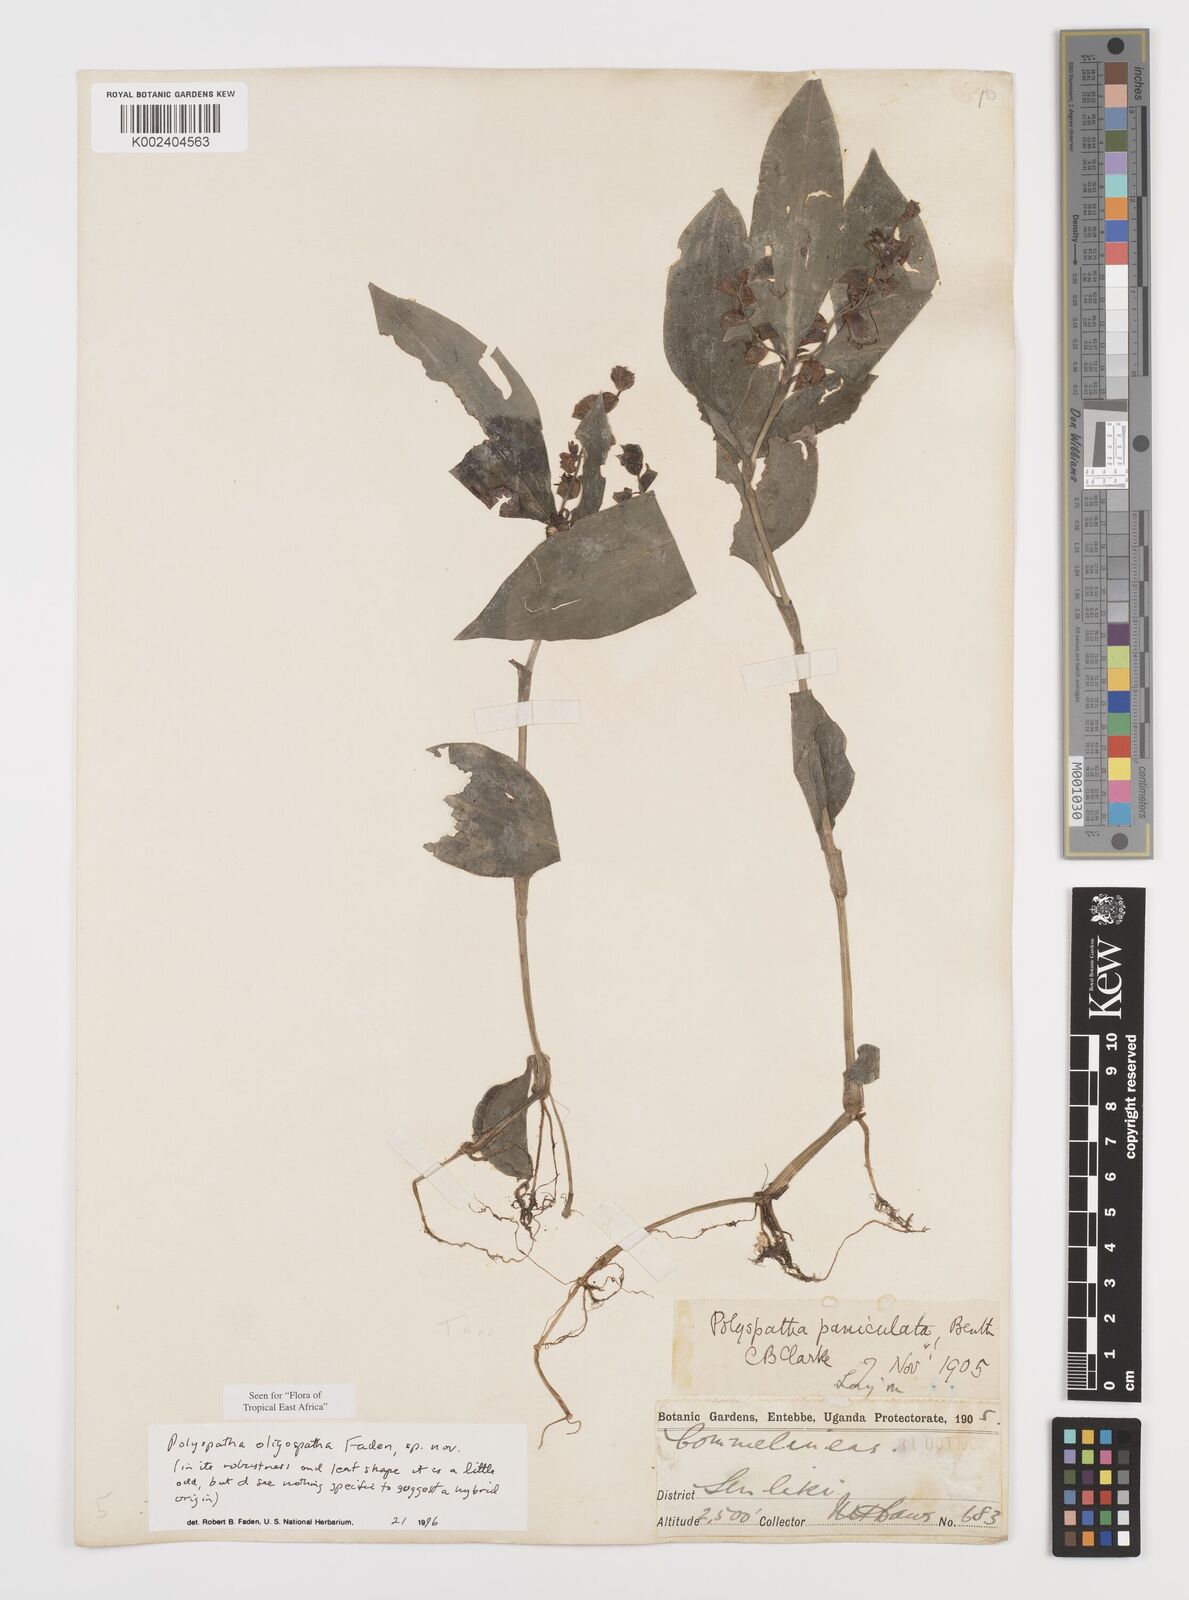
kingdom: Plantae
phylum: Tracheophyta
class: Liliopsida
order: Commelinales
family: Commelinaceae
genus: Polyspatha
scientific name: Polyspatha oligospatha
